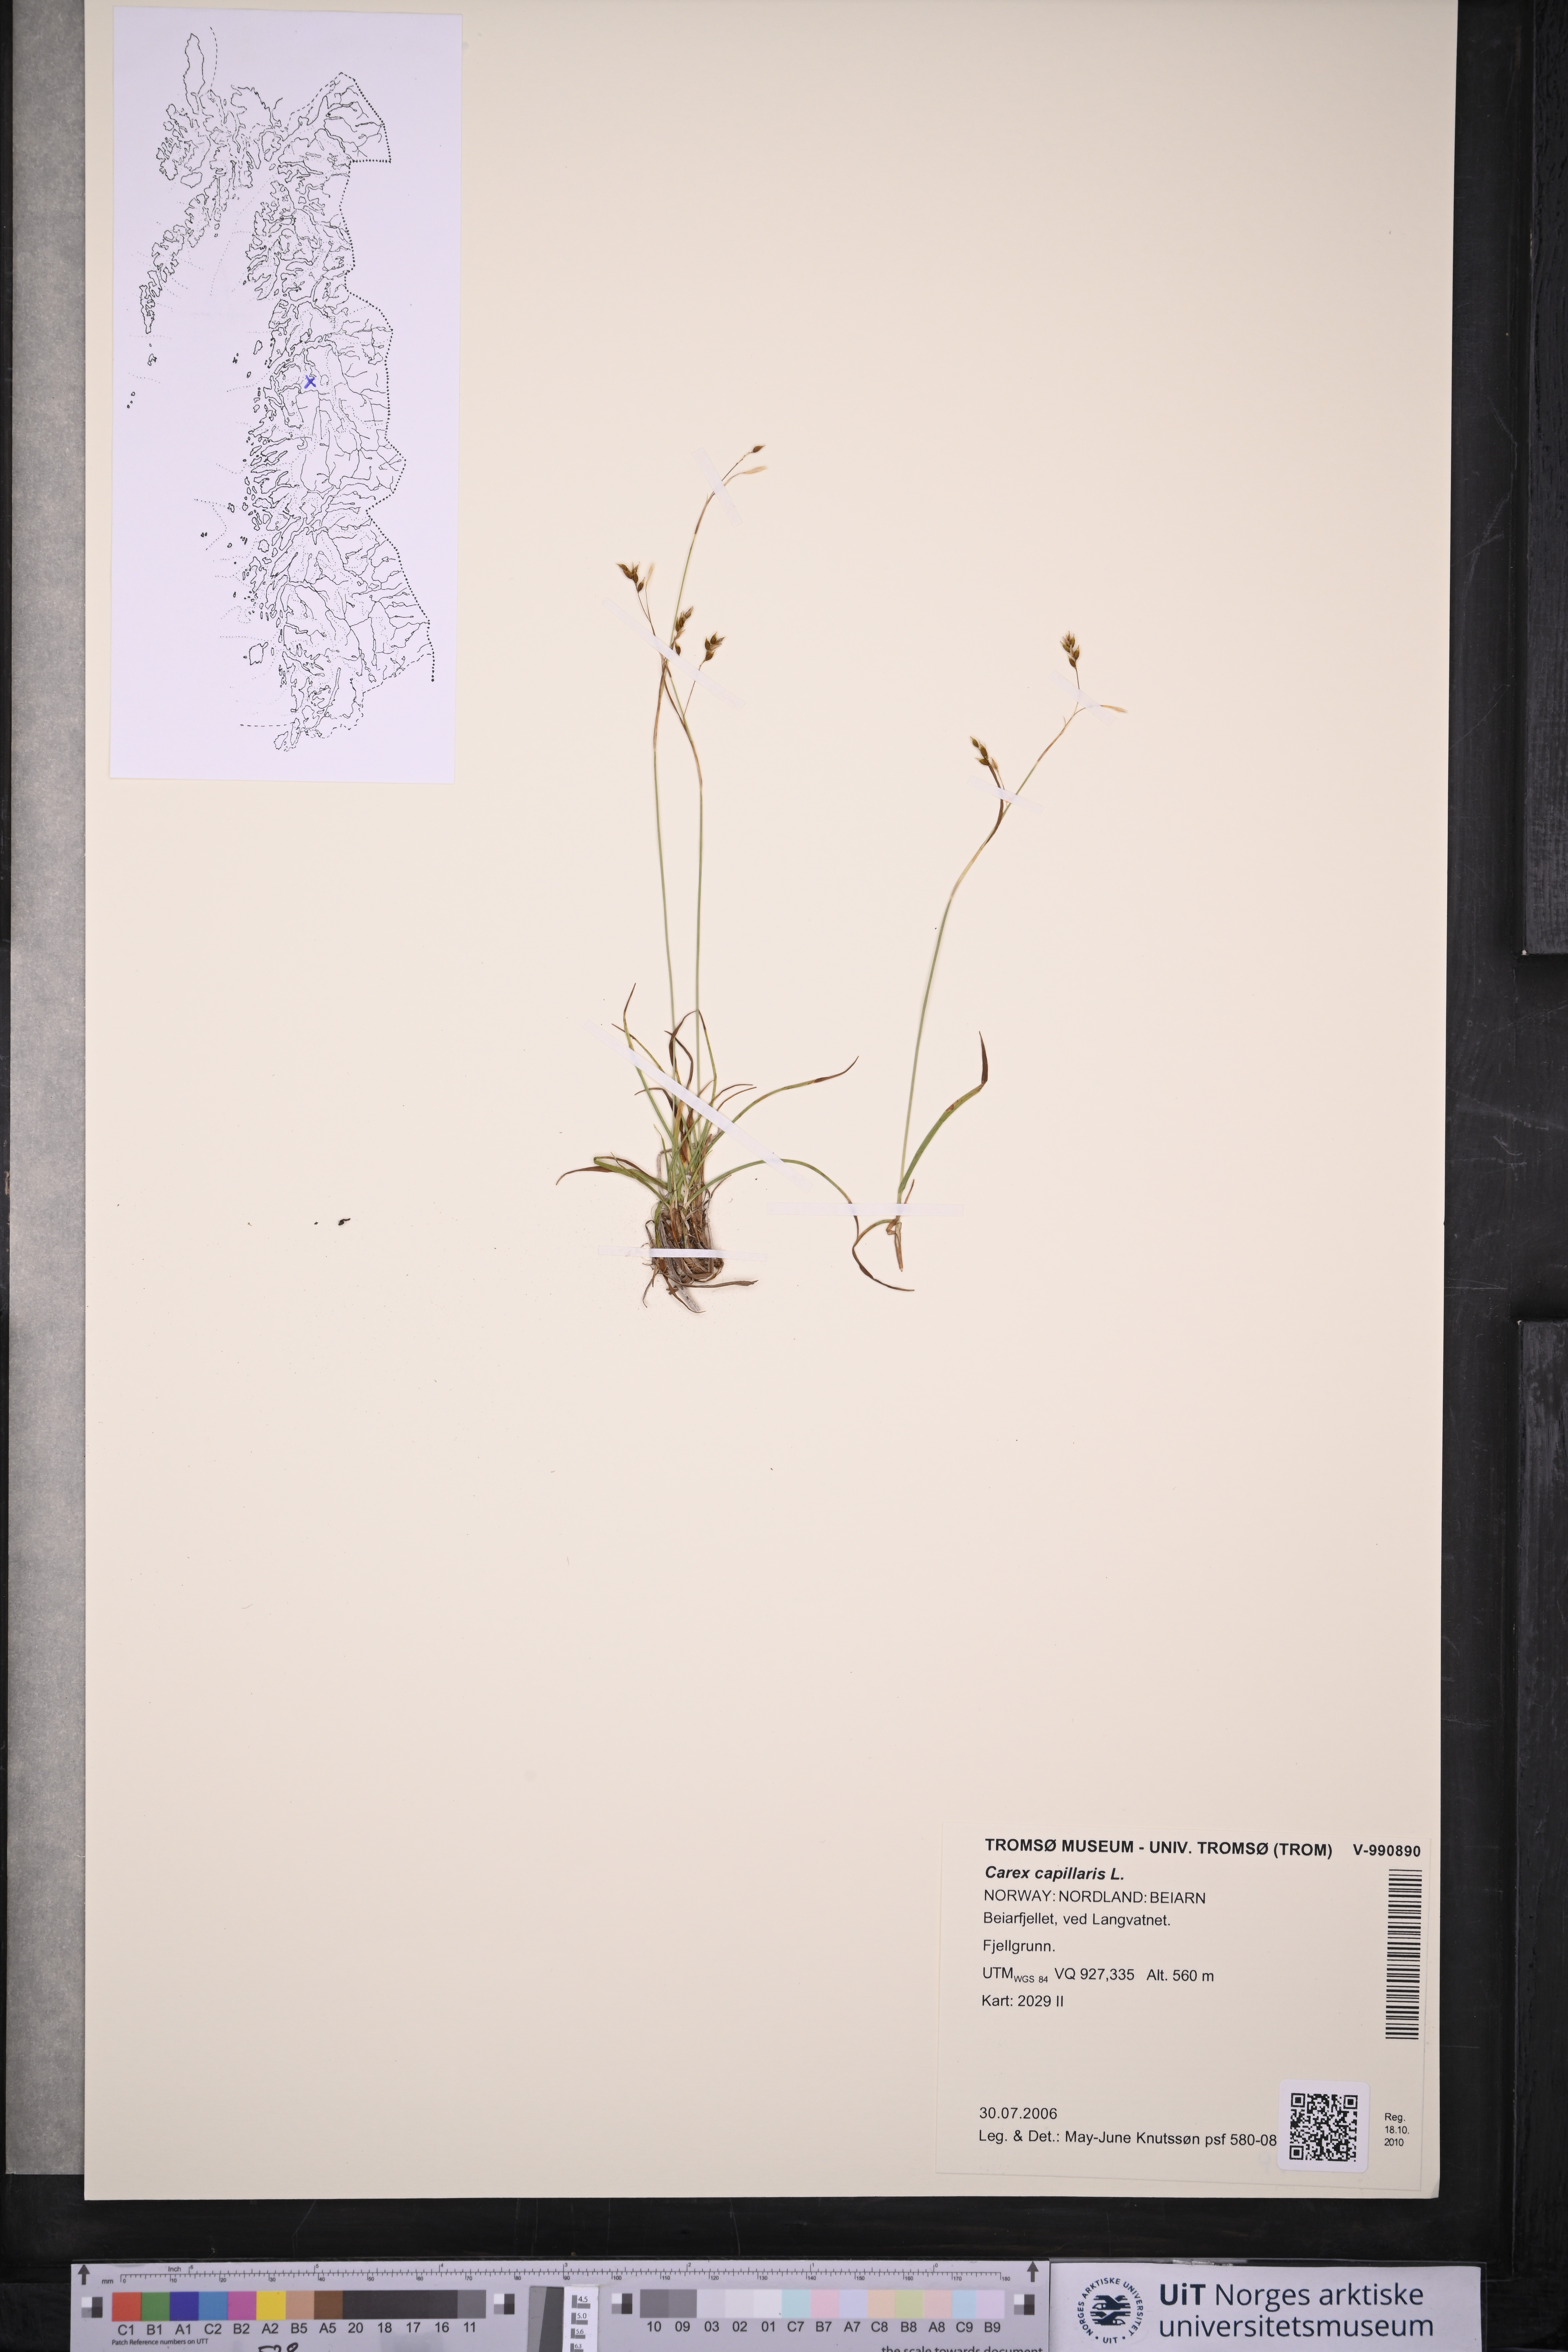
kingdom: Plantae
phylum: Tracheophyta
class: Liliopsida
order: Poales
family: Cyperaceae
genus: Carex
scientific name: Carex capillaris
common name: Hair sedge
